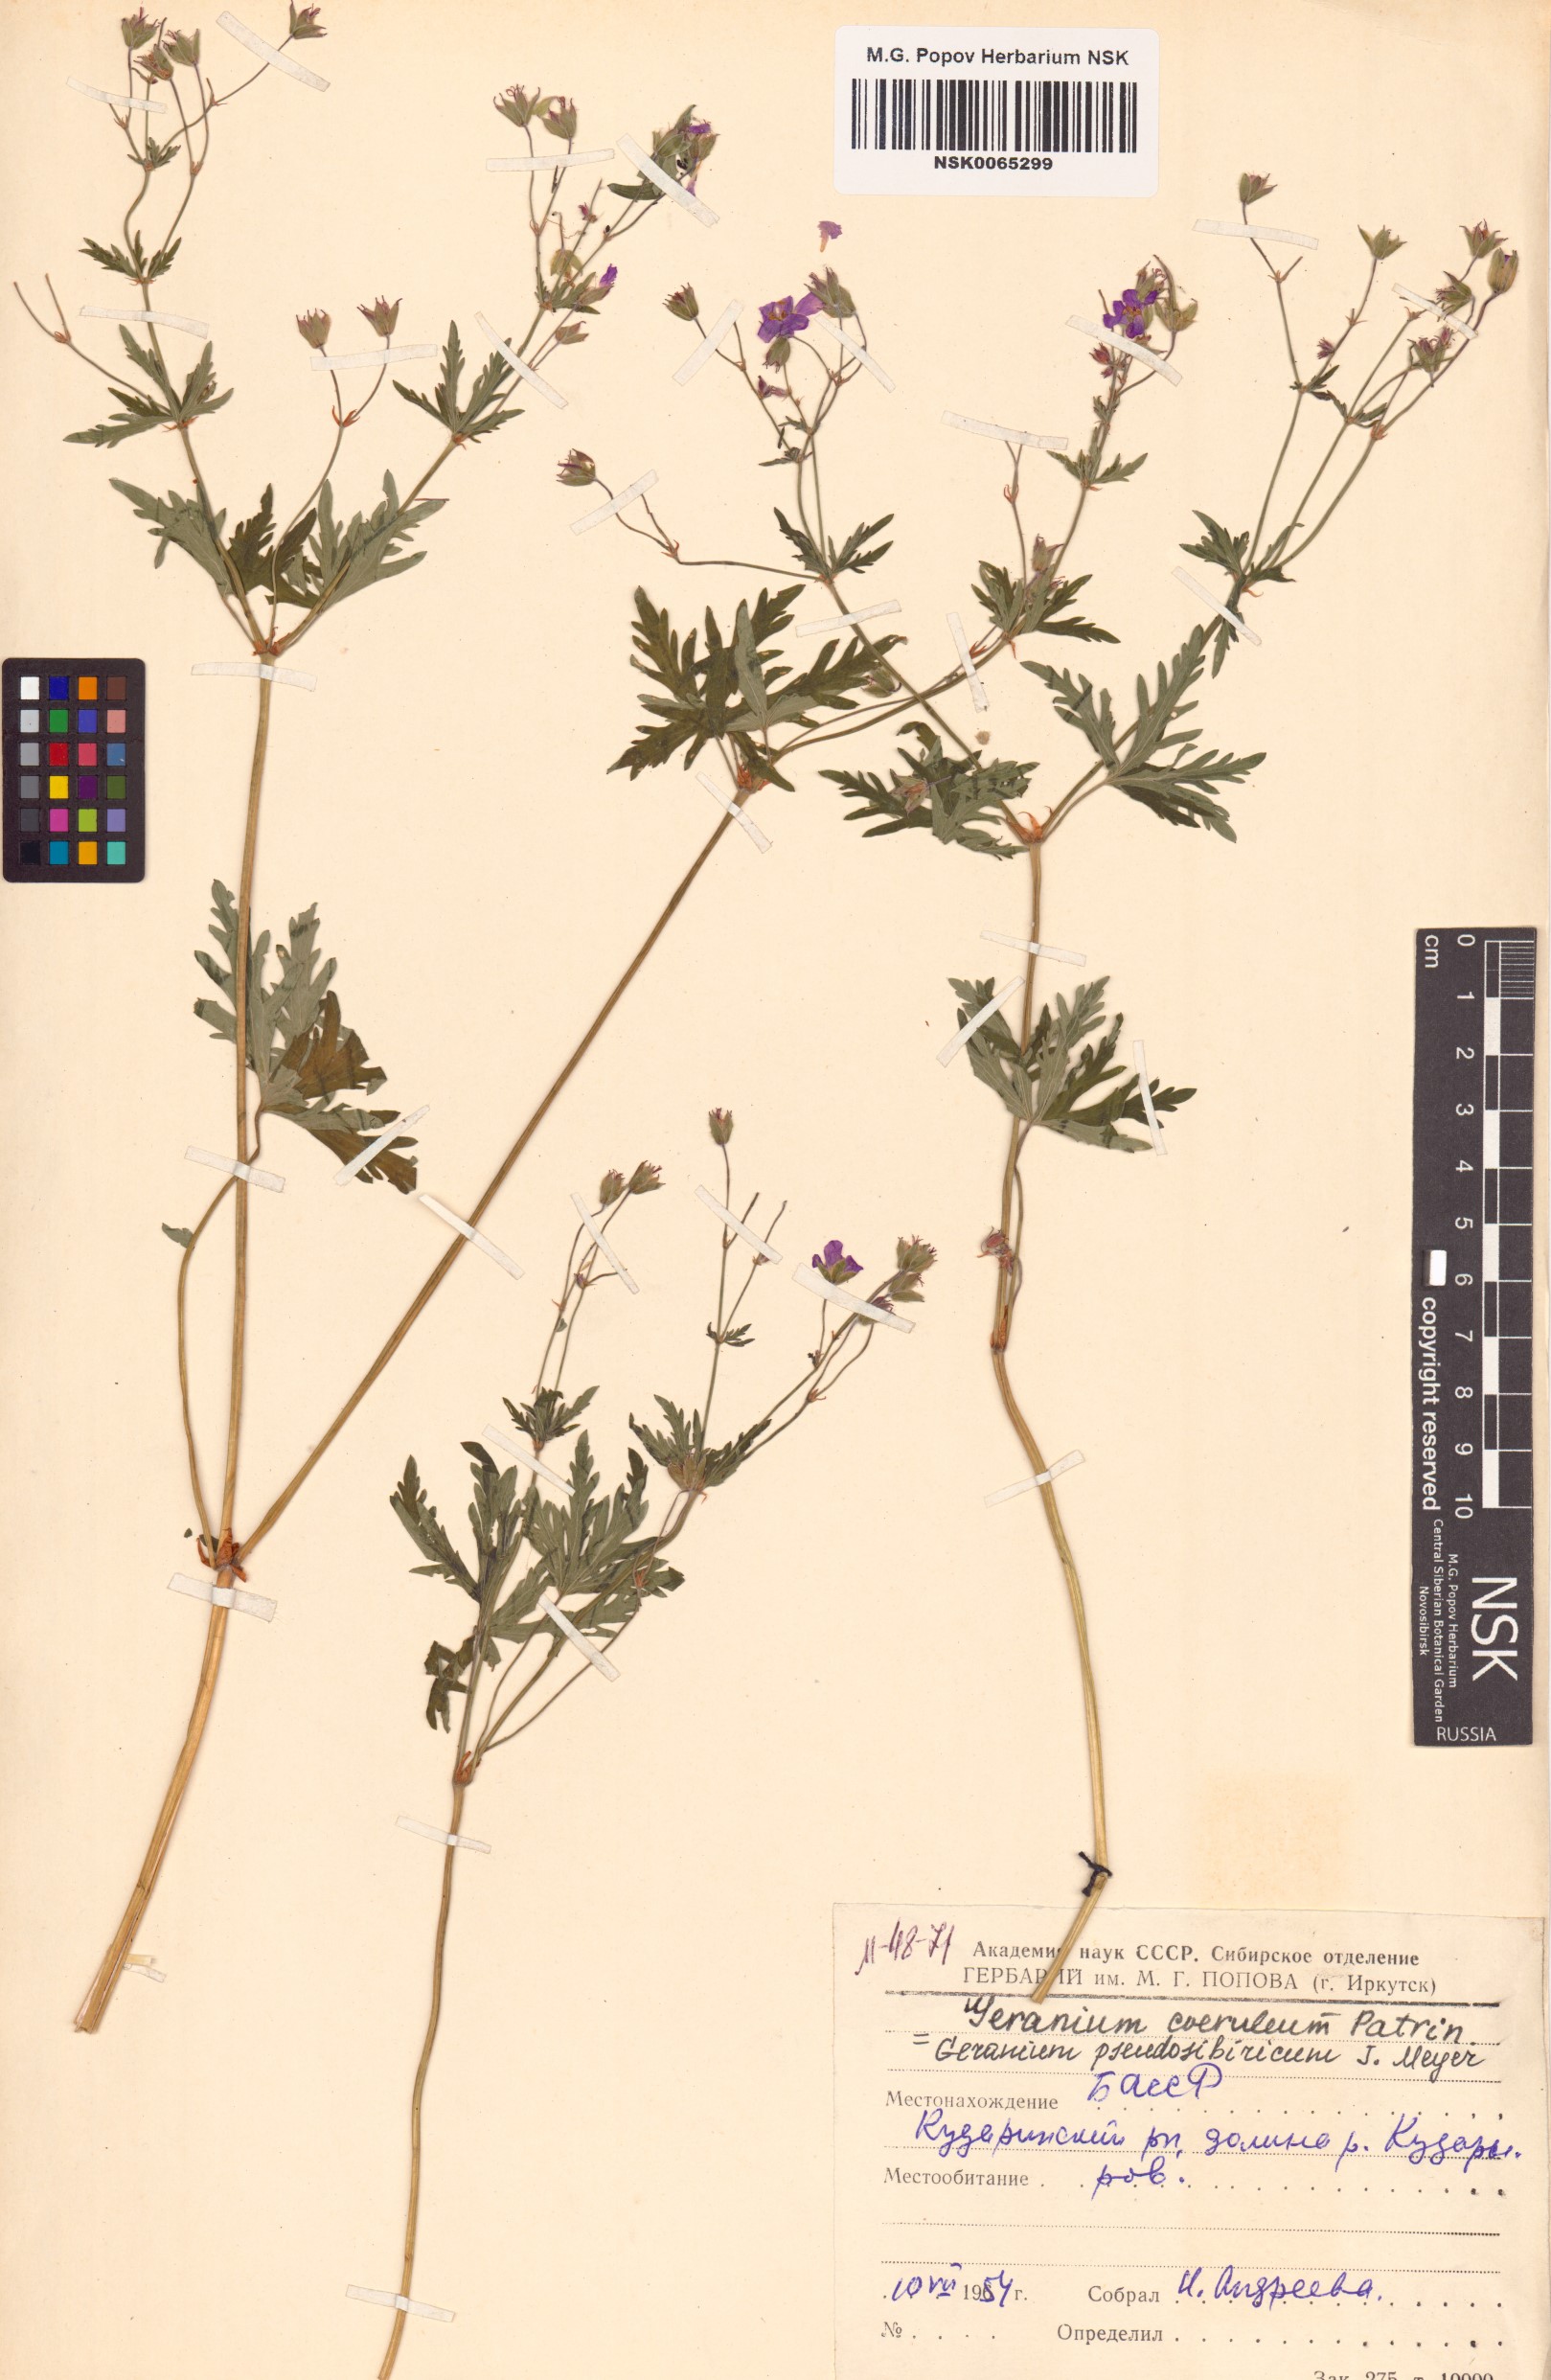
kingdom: Plantae
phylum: Tracheophyta
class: Magnoliopsida
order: Geraniales
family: Geraniaceae
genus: Geranium
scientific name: Geranium pseudosibiricum
